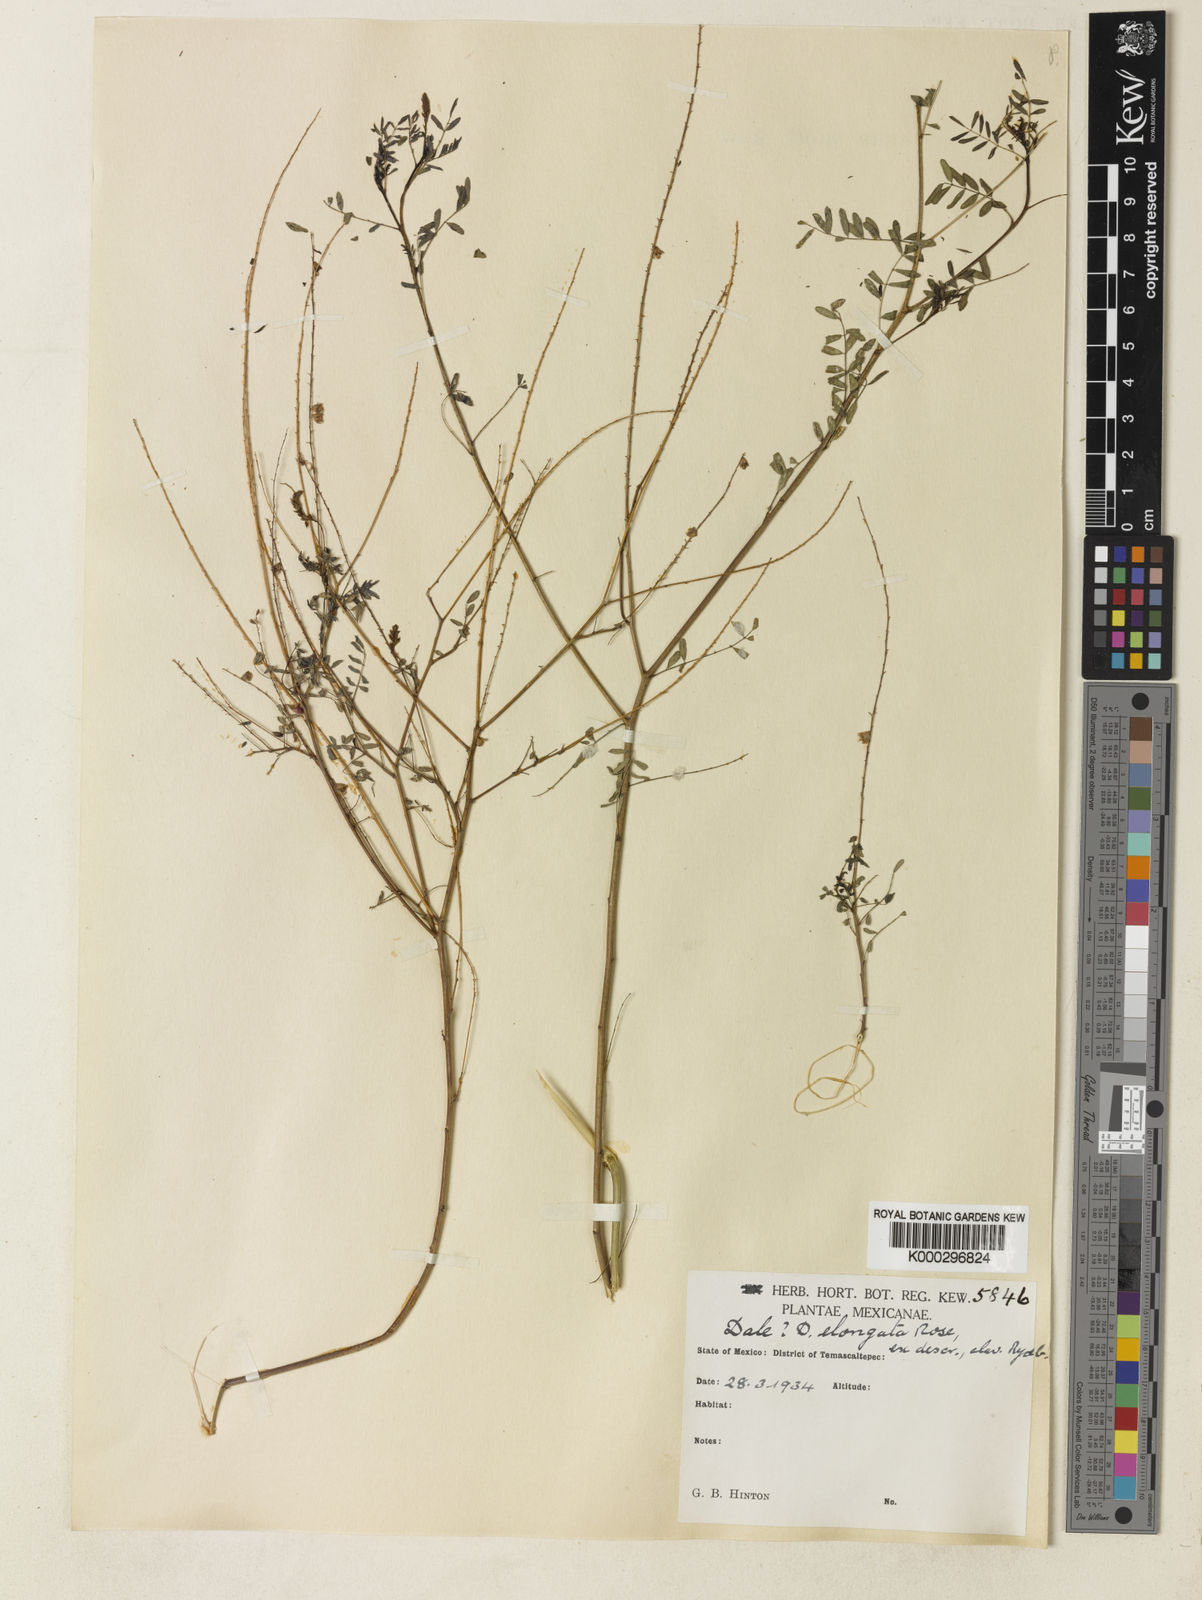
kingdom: Plantae
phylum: Tracheophyta
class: Magnoliopsida
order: Fabales
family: Fabaceae
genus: Marina
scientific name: Marina neglecta
